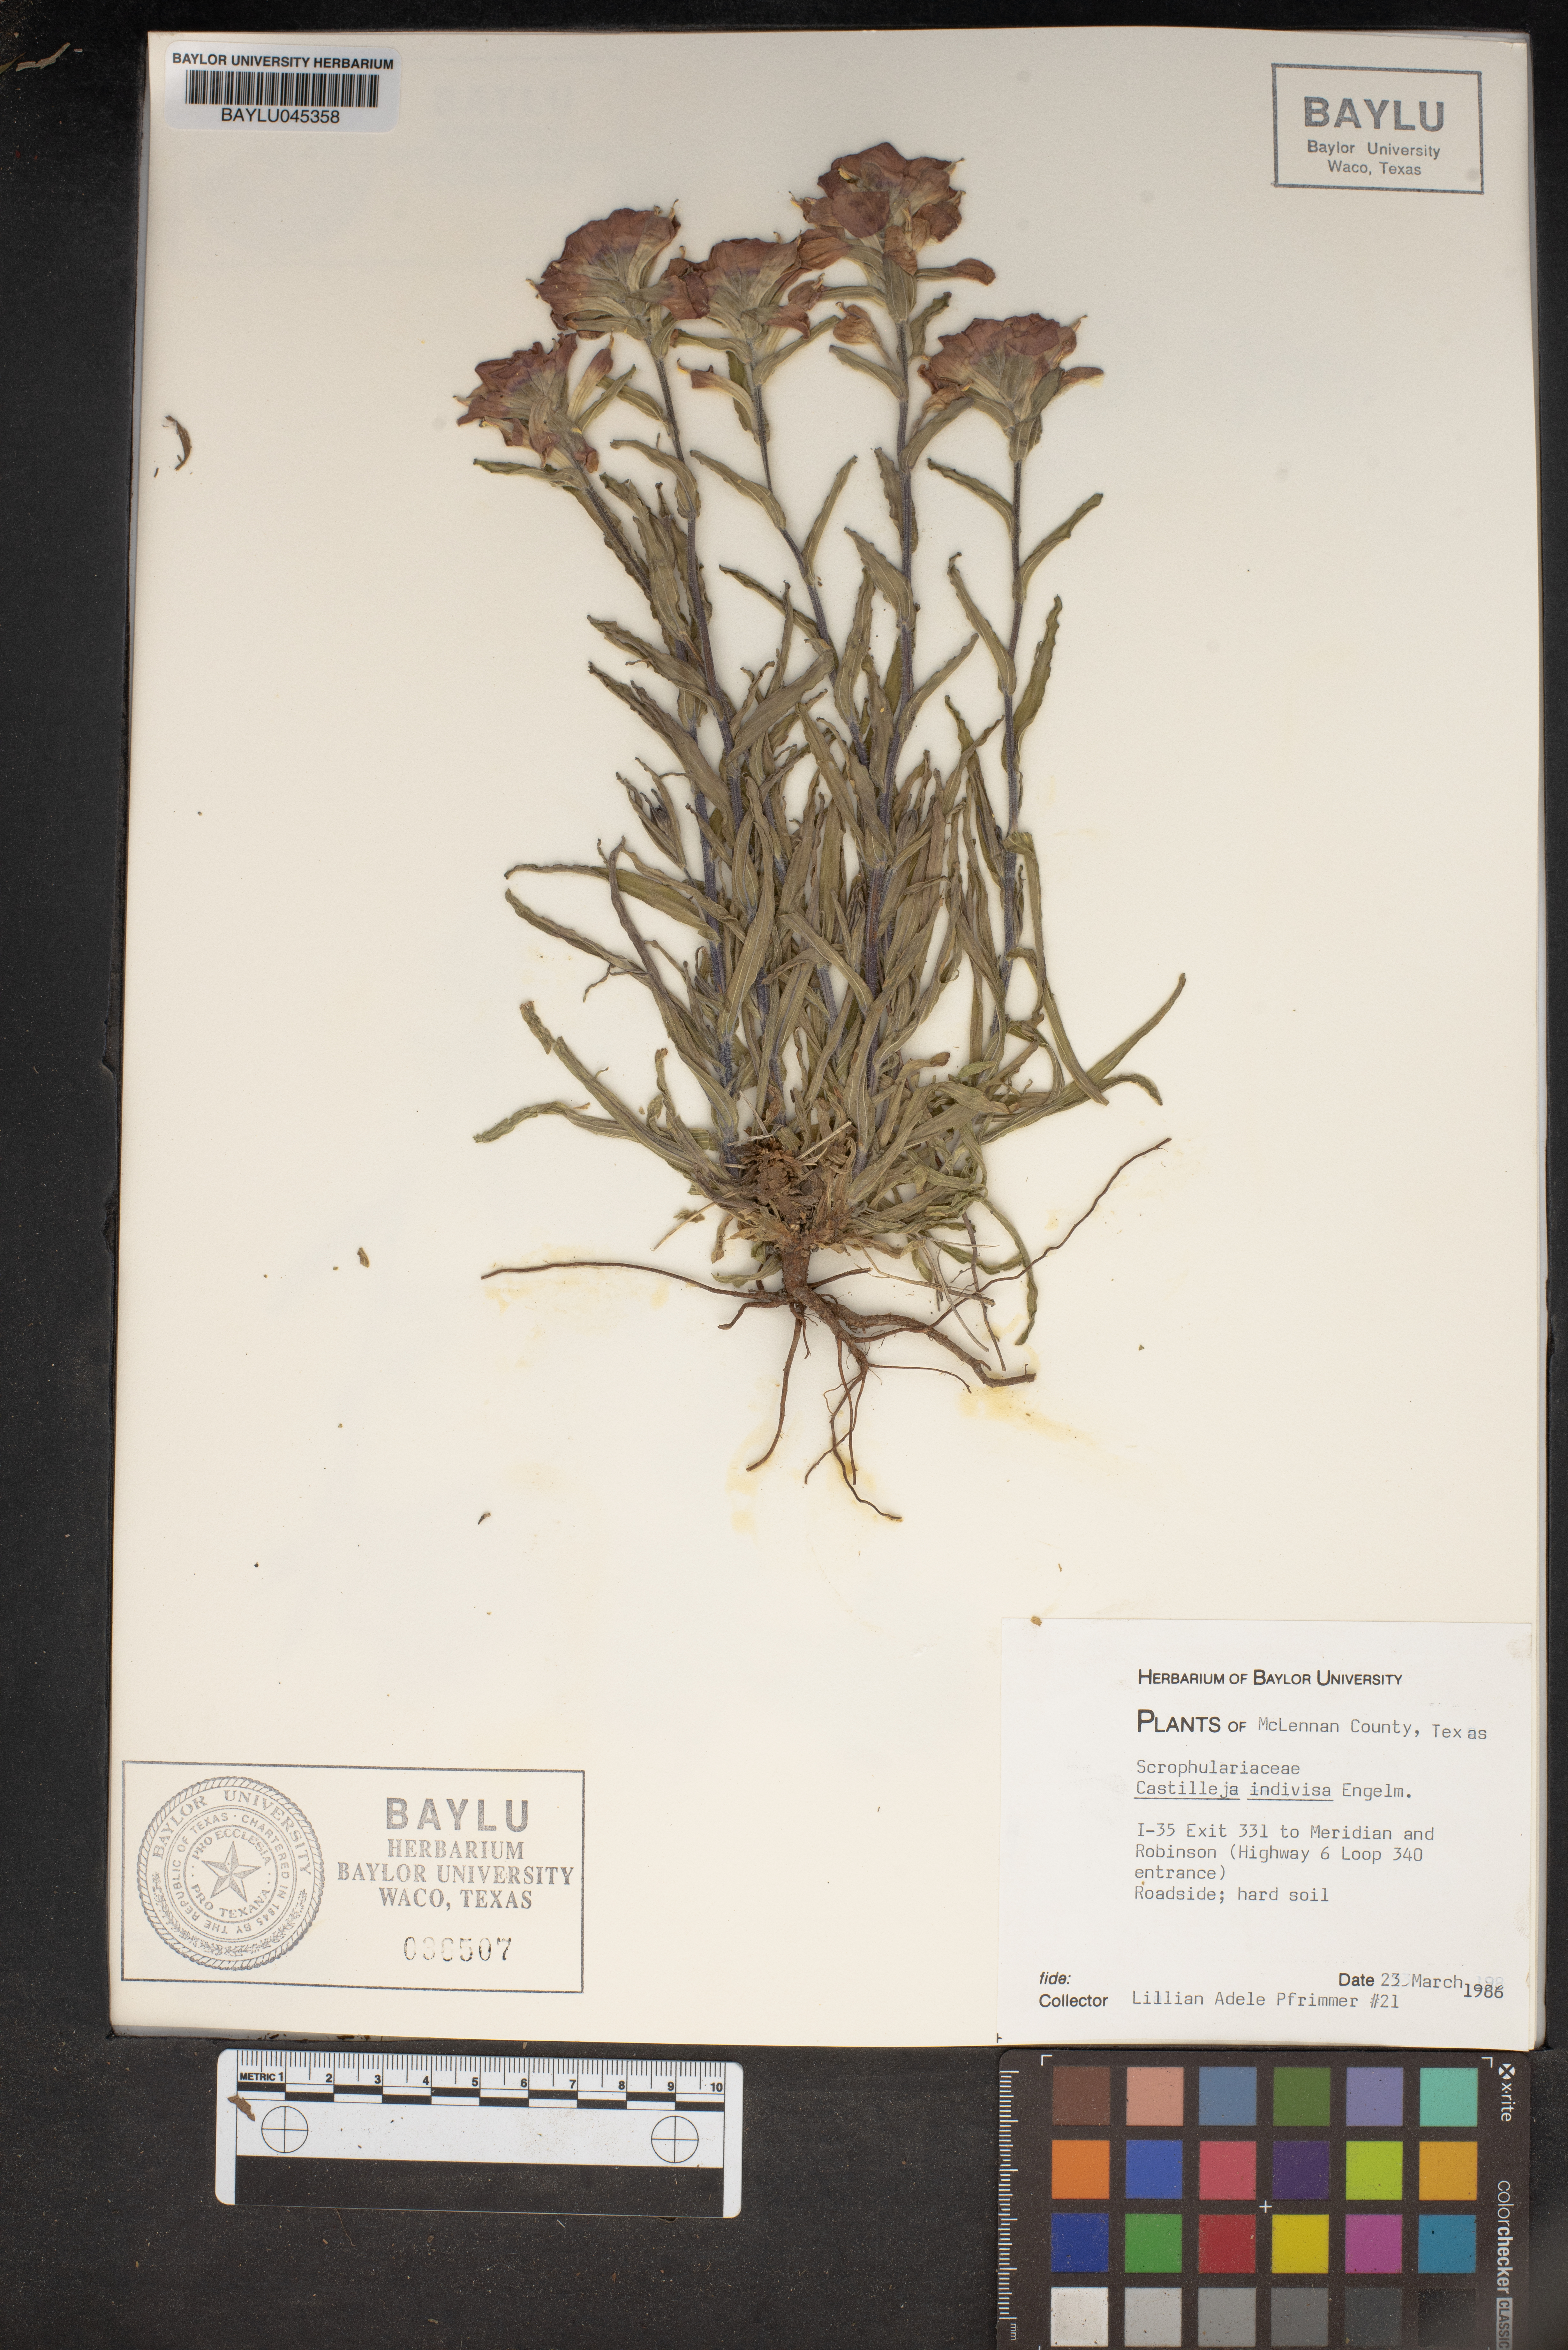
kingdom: Plantae
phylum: Tracheophyta
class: Magnoliopsida
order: Lamiales
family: Orobanchaceae
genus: Castilleja
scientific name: Castilleja indivisa
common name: Texas paintbrush
